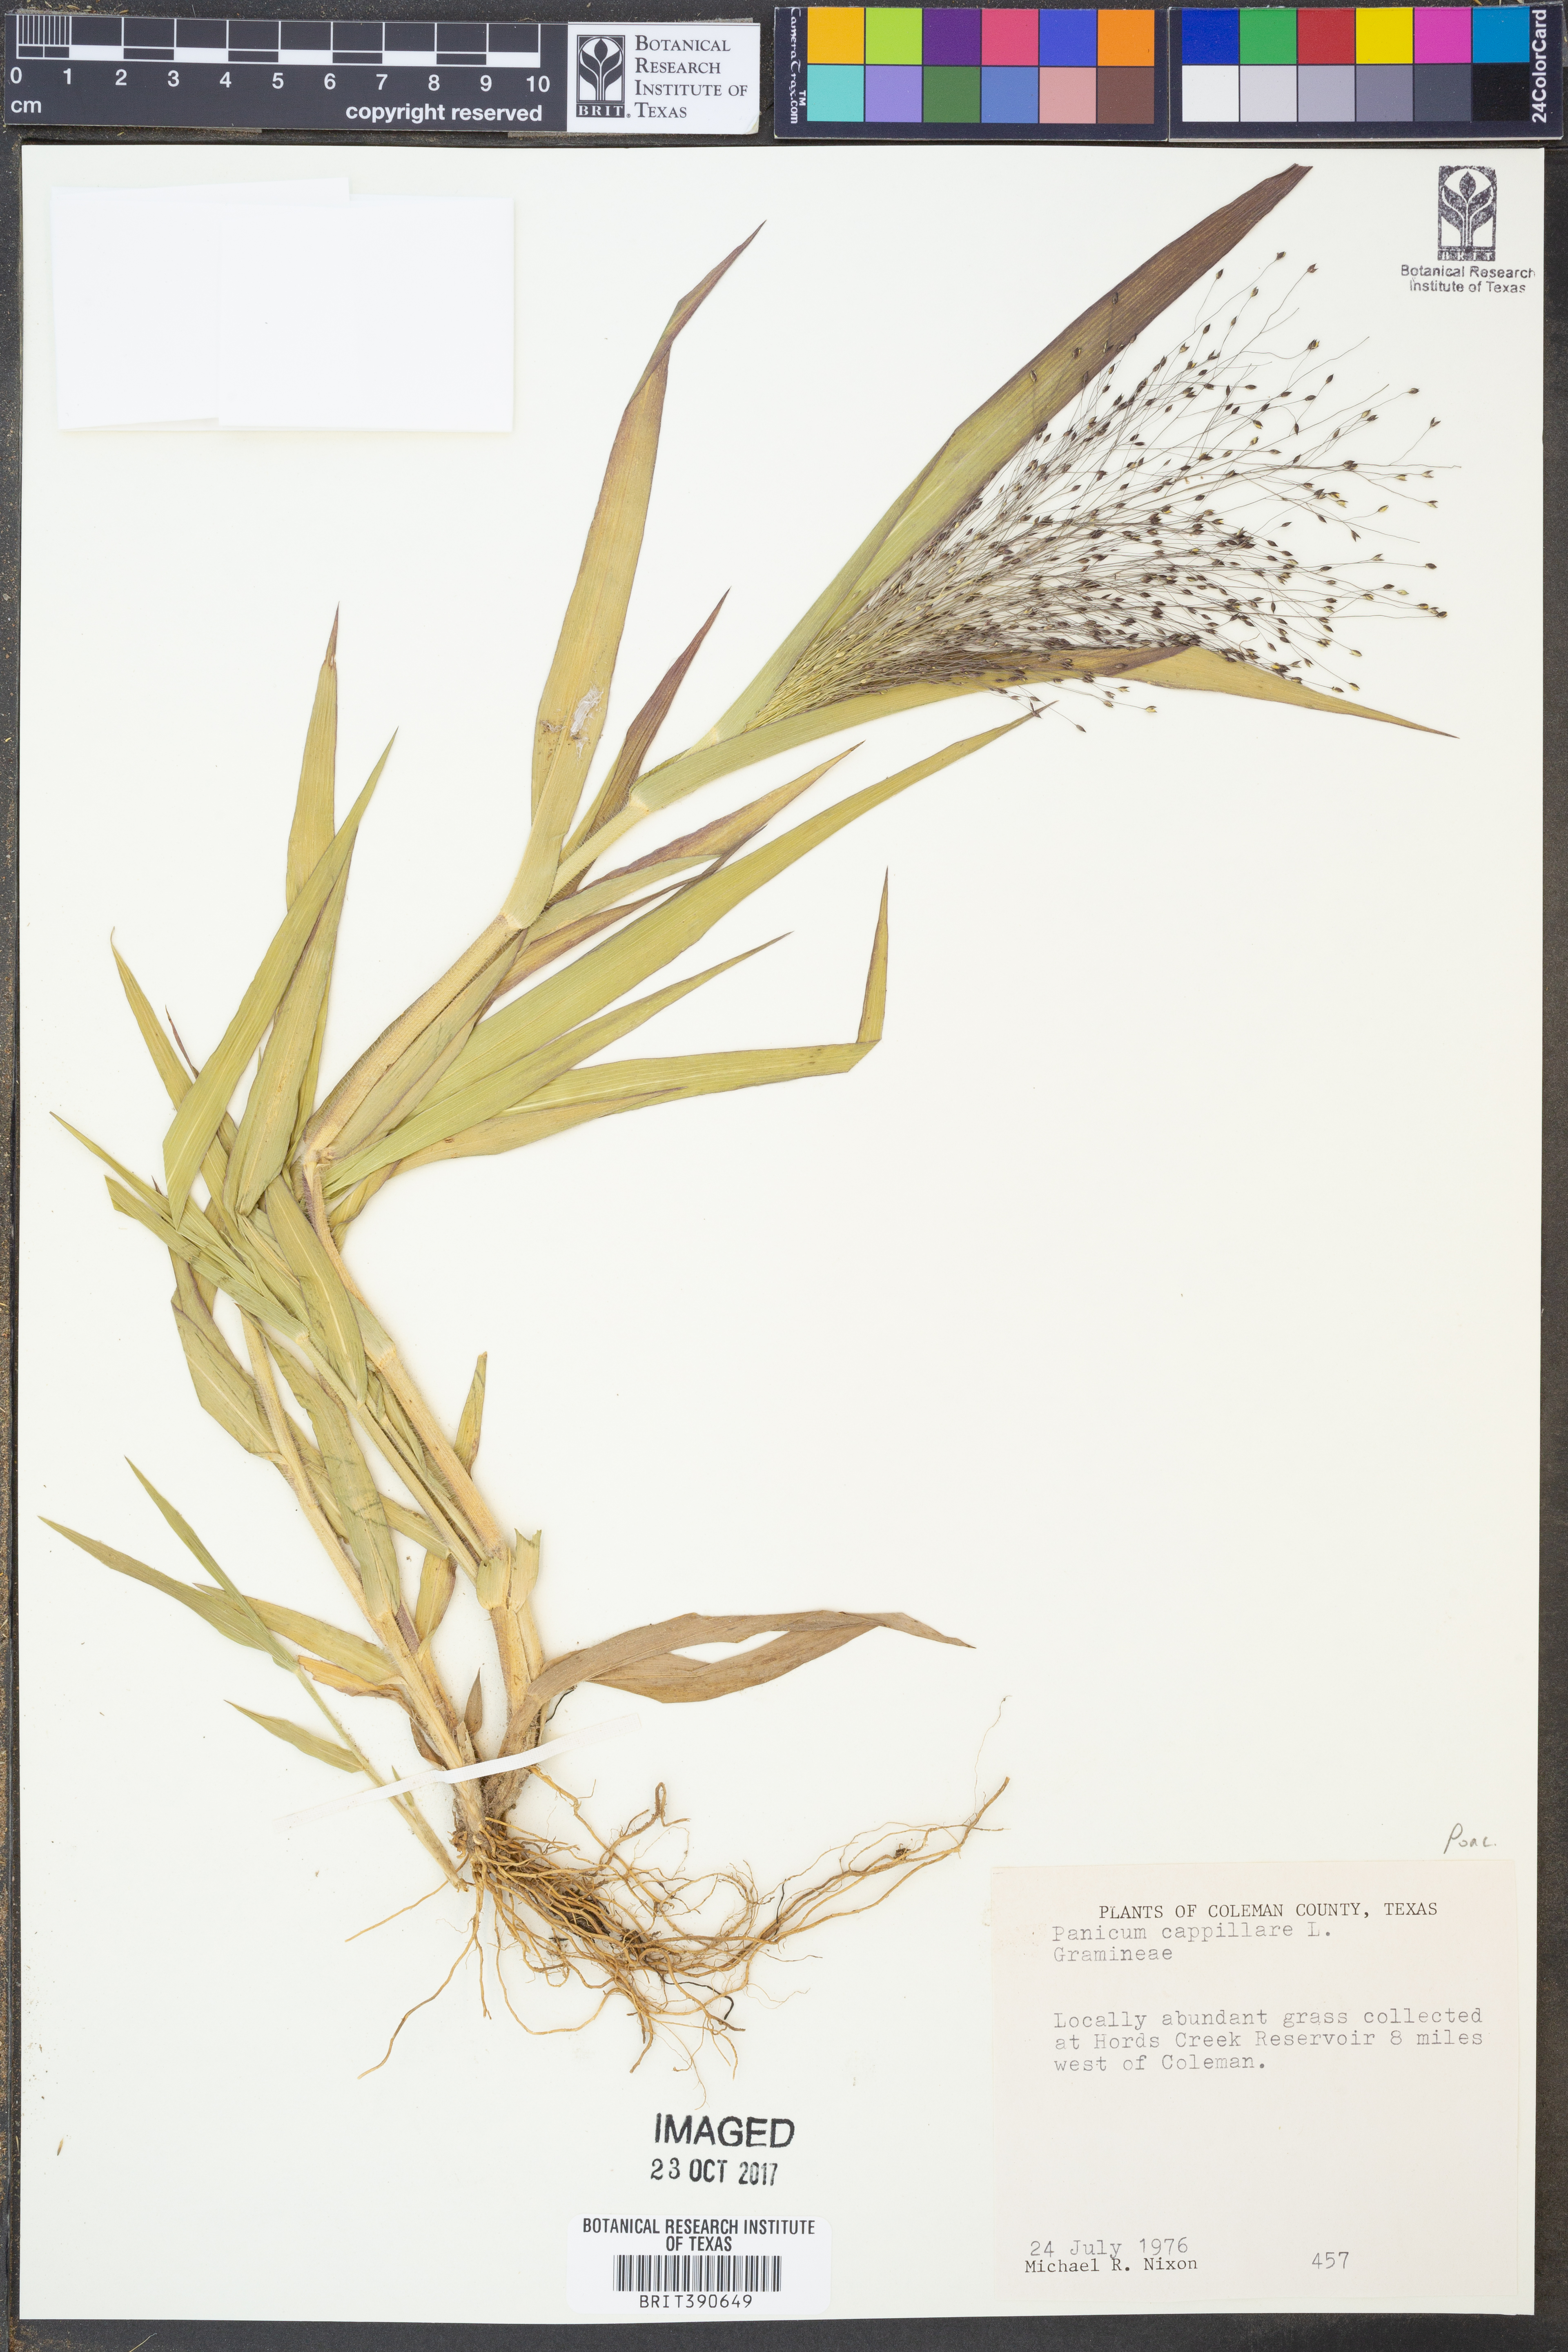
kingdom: Plantae
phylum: Tracheophyta
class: Liliopsida
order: Poales
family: Poaceae
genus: Panicum
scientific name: Panicum capillare
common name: Witch-grass
